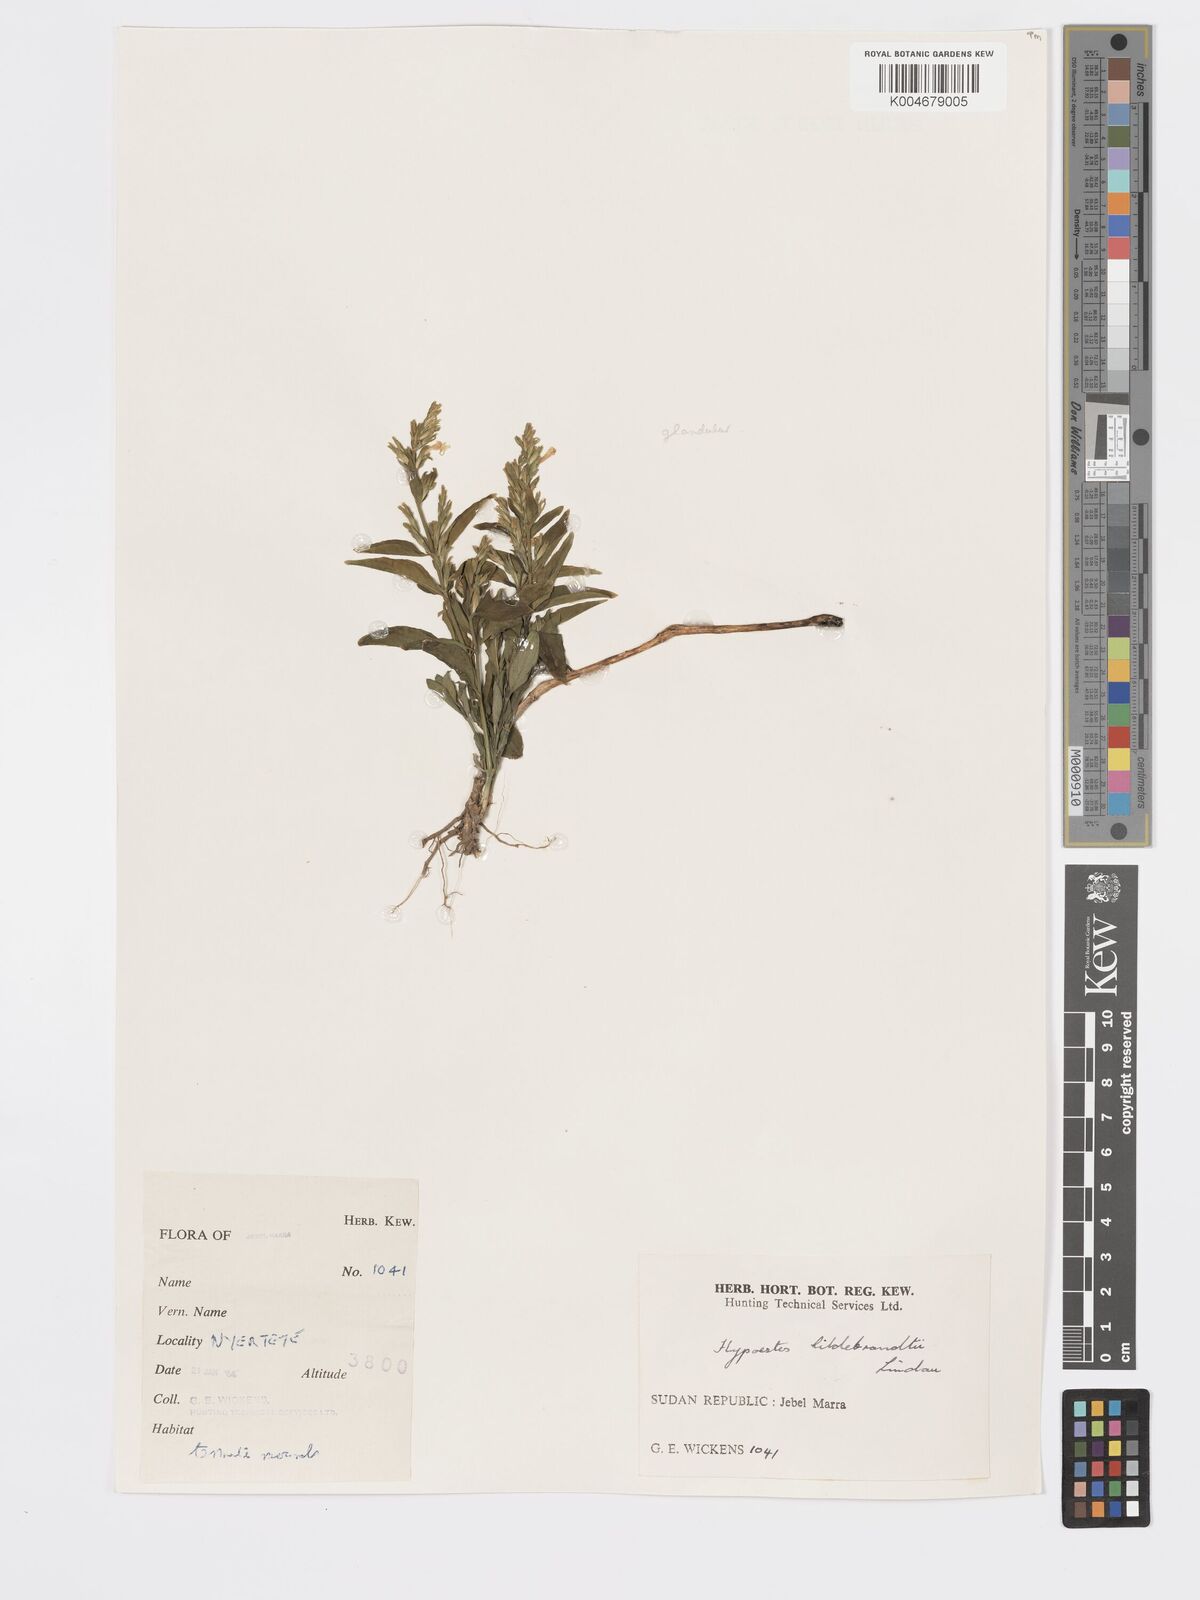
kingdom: Plantae
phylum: Tracheophyta
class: Magnoliopsida
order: Lamiales
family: Acanthaceae
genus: Hypoestes
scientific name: Hypoestes forskaolii
